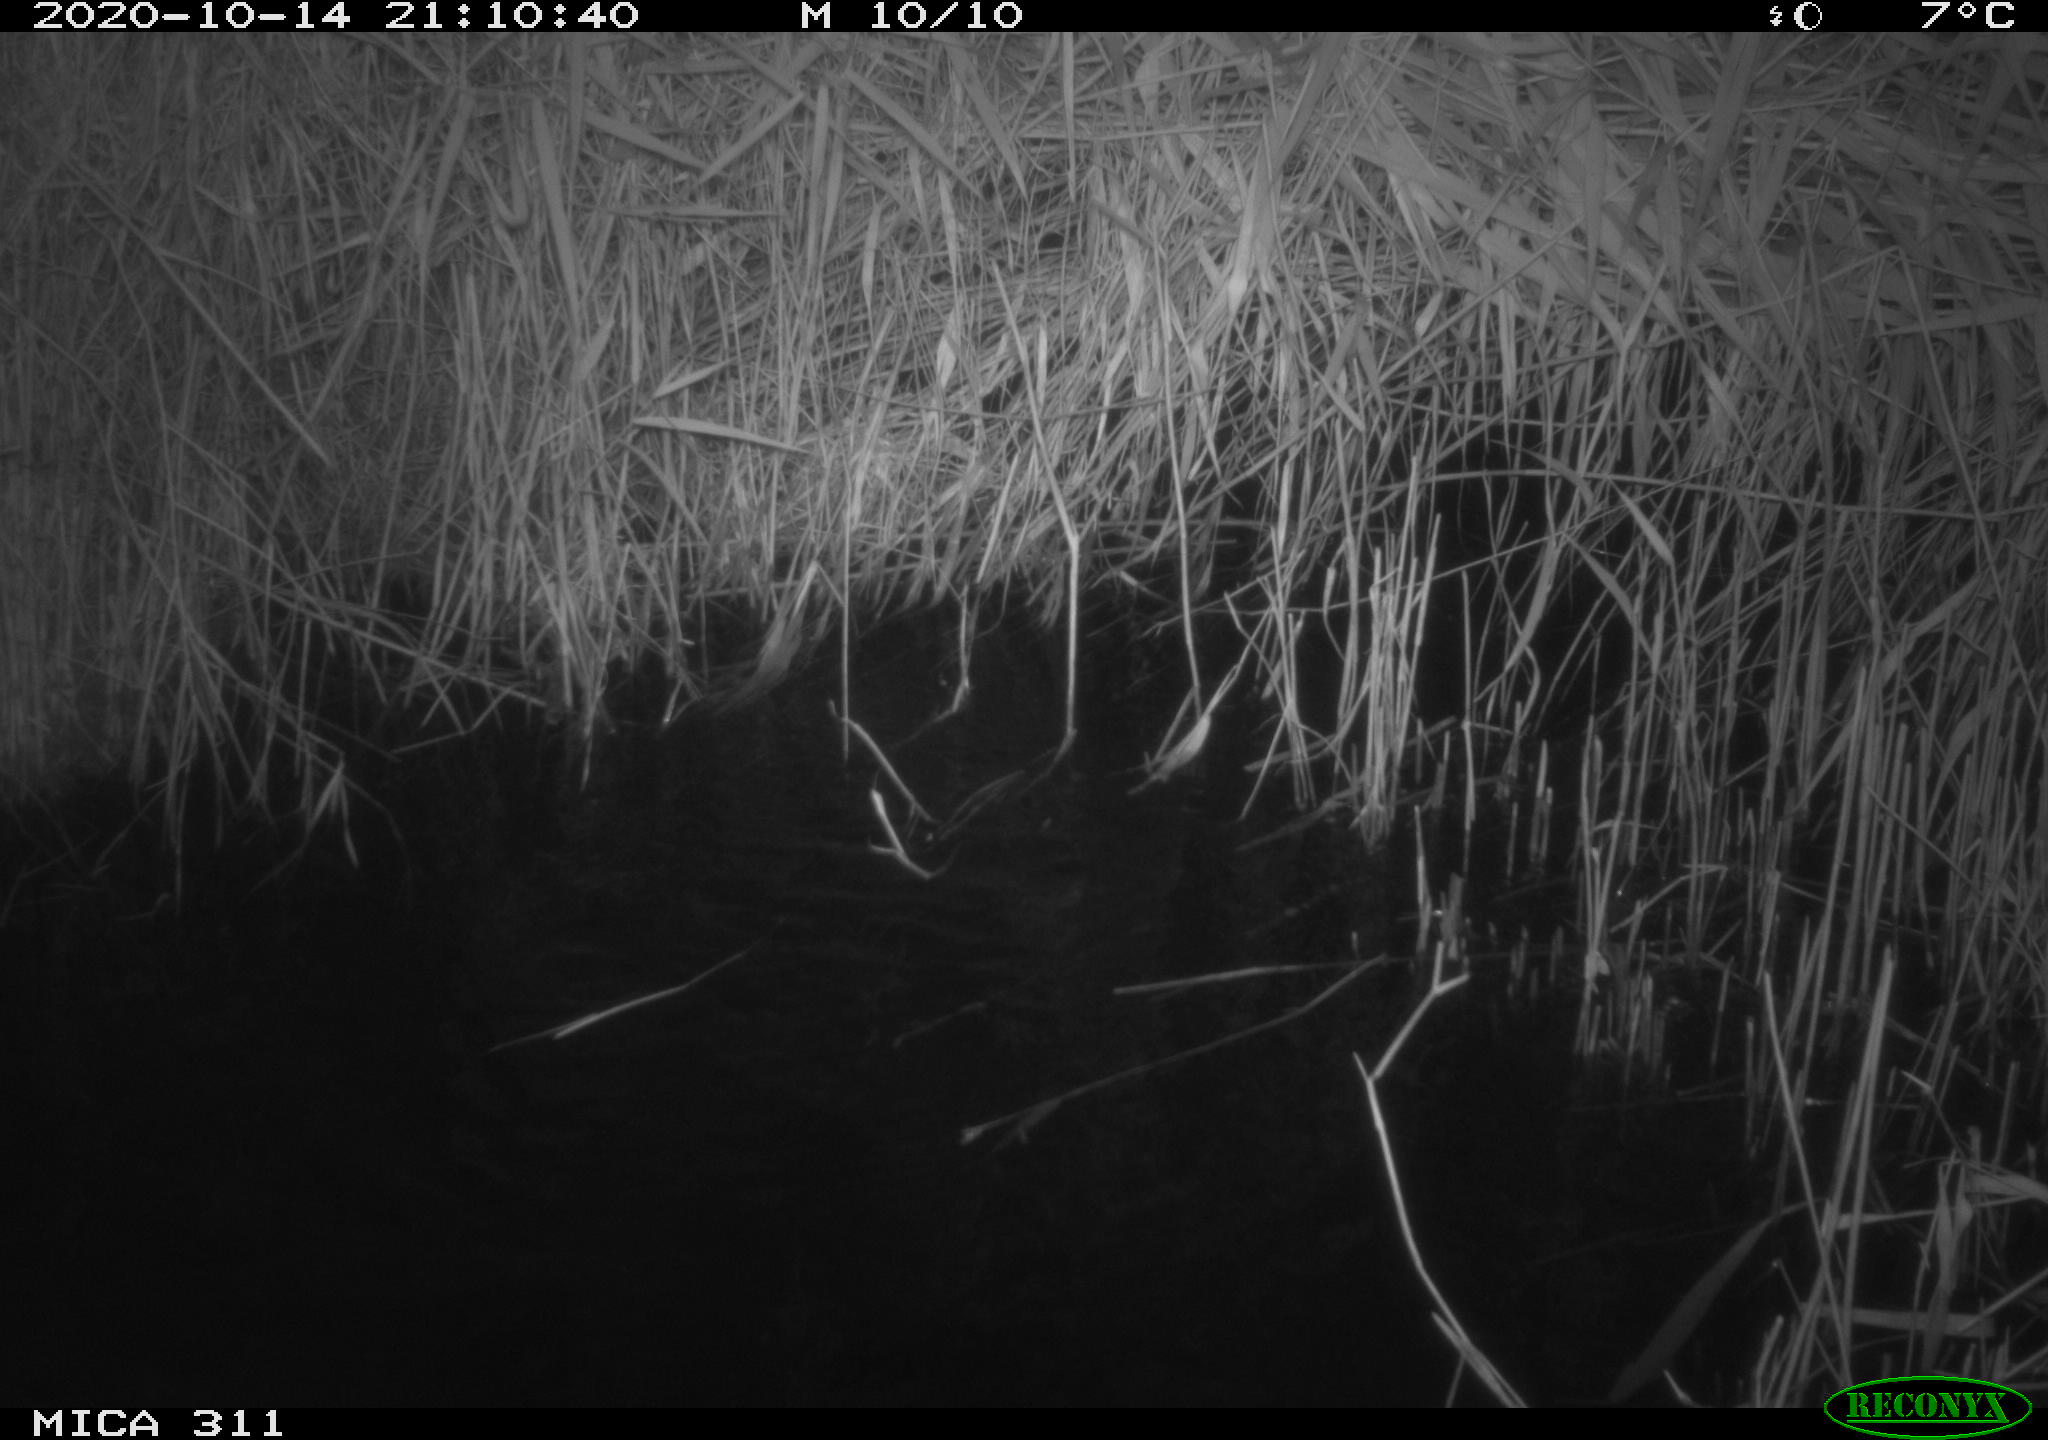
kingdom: Animalia
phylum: Chordata
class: Mammalia
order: Rodentia
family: Muridae
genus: Rattus
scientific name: Rattus norvegicus
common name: Brown rat
